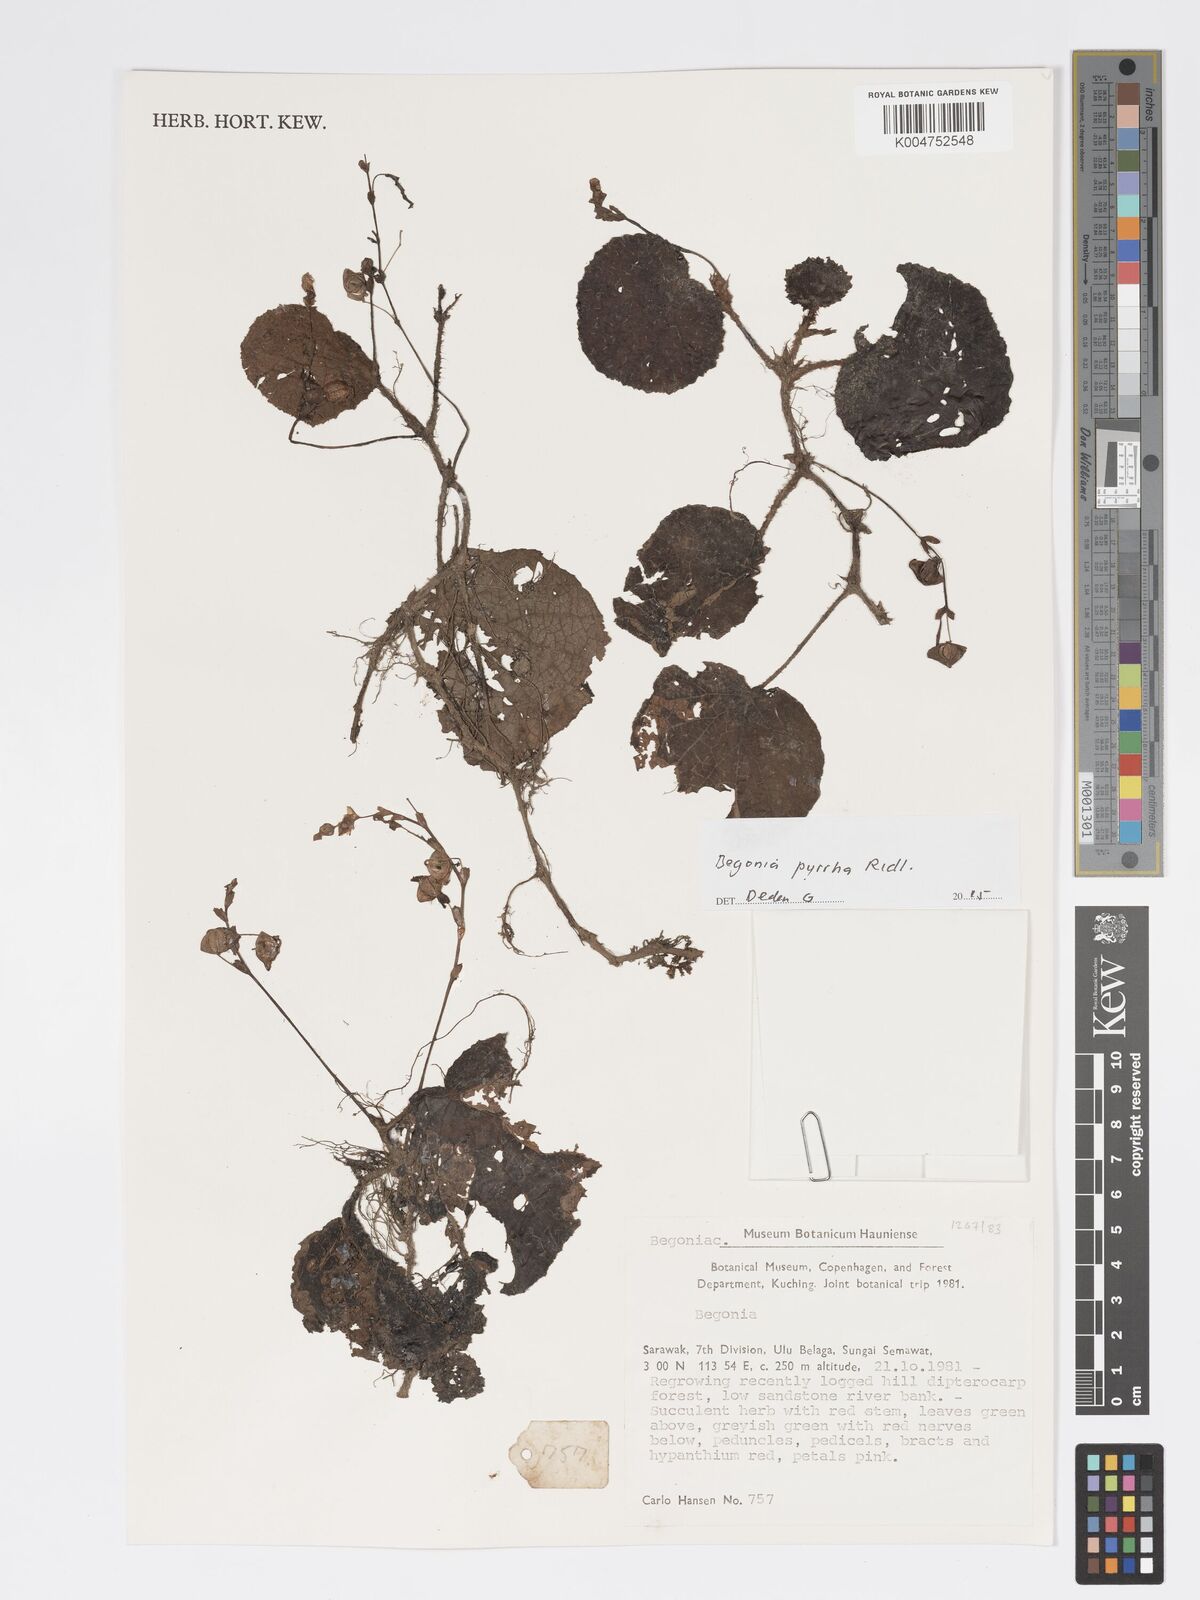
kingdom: Plantae
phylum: Tracheophyta
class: Magnoliopsida
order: Cucurbitales
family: Begoniaceae
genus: Begonia
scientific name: Begonia pyrrha
